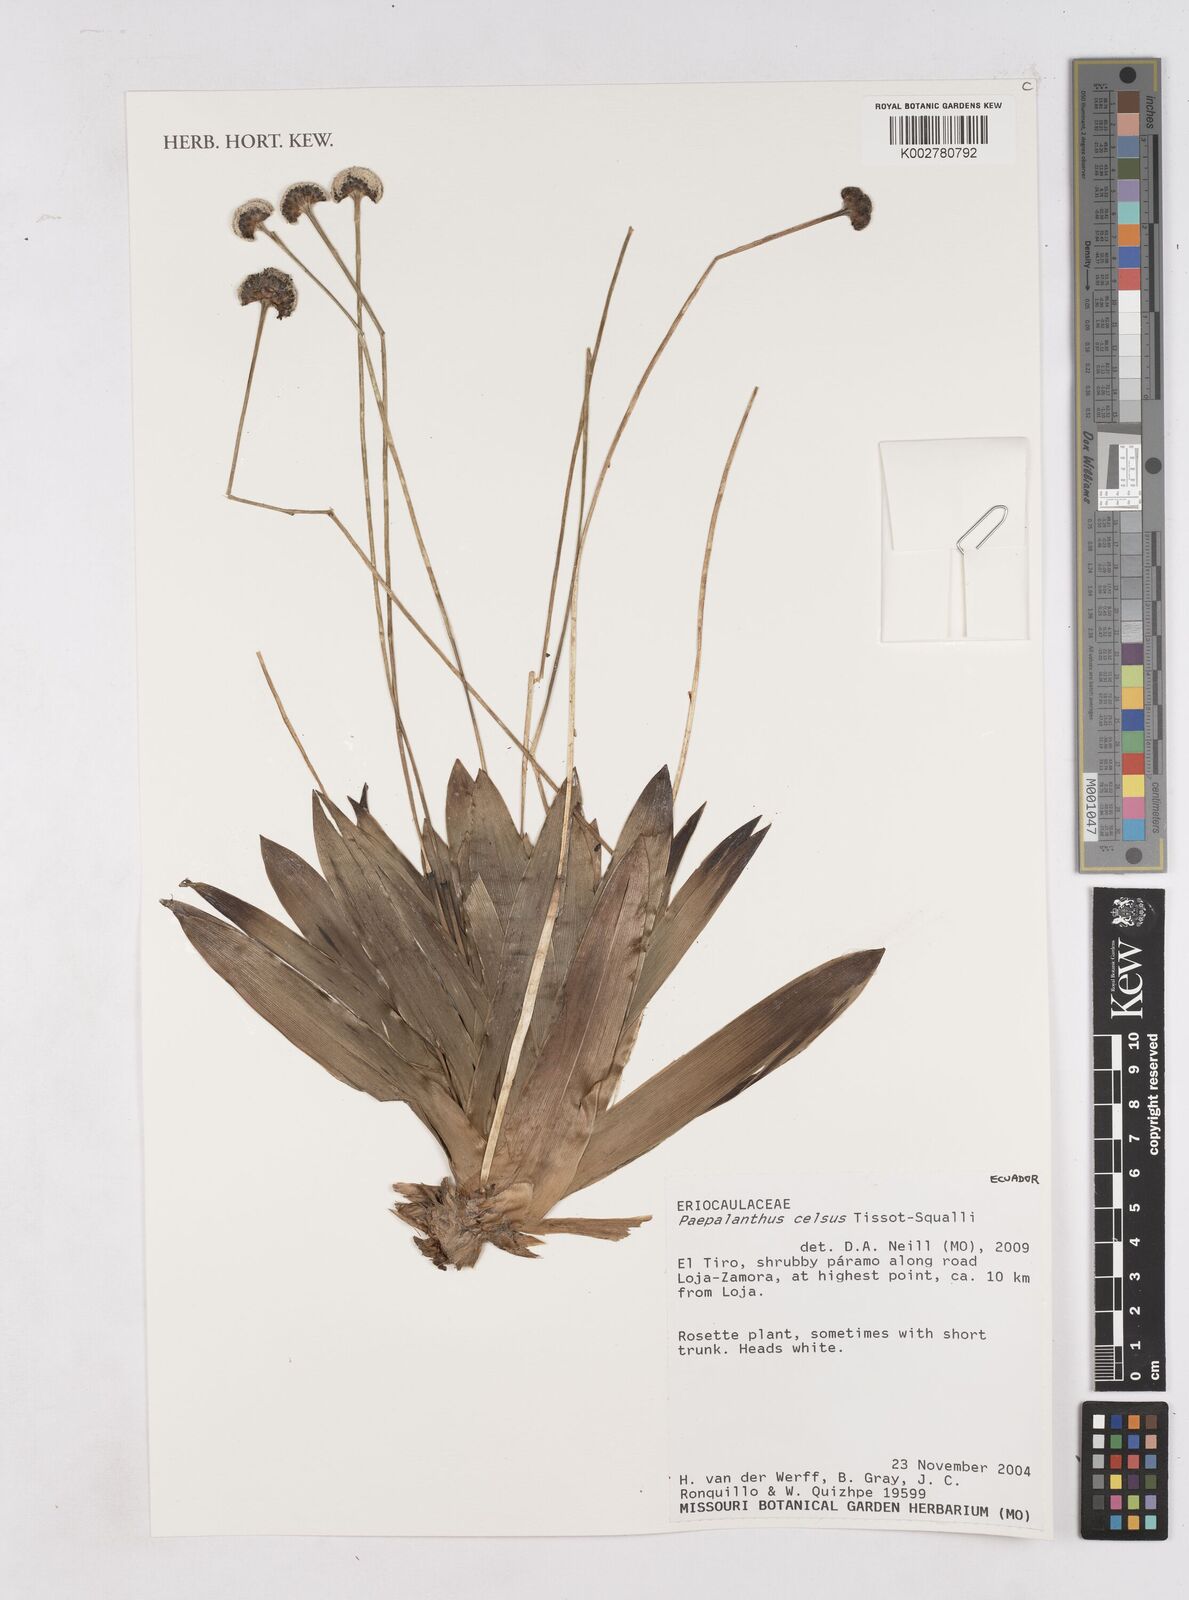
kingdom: Plantae
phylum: Tracheophyta
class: Liliopsida
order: Poales
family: Eriocaulaceae
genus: Paepalanthus
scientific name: Paepalanthus celsus
